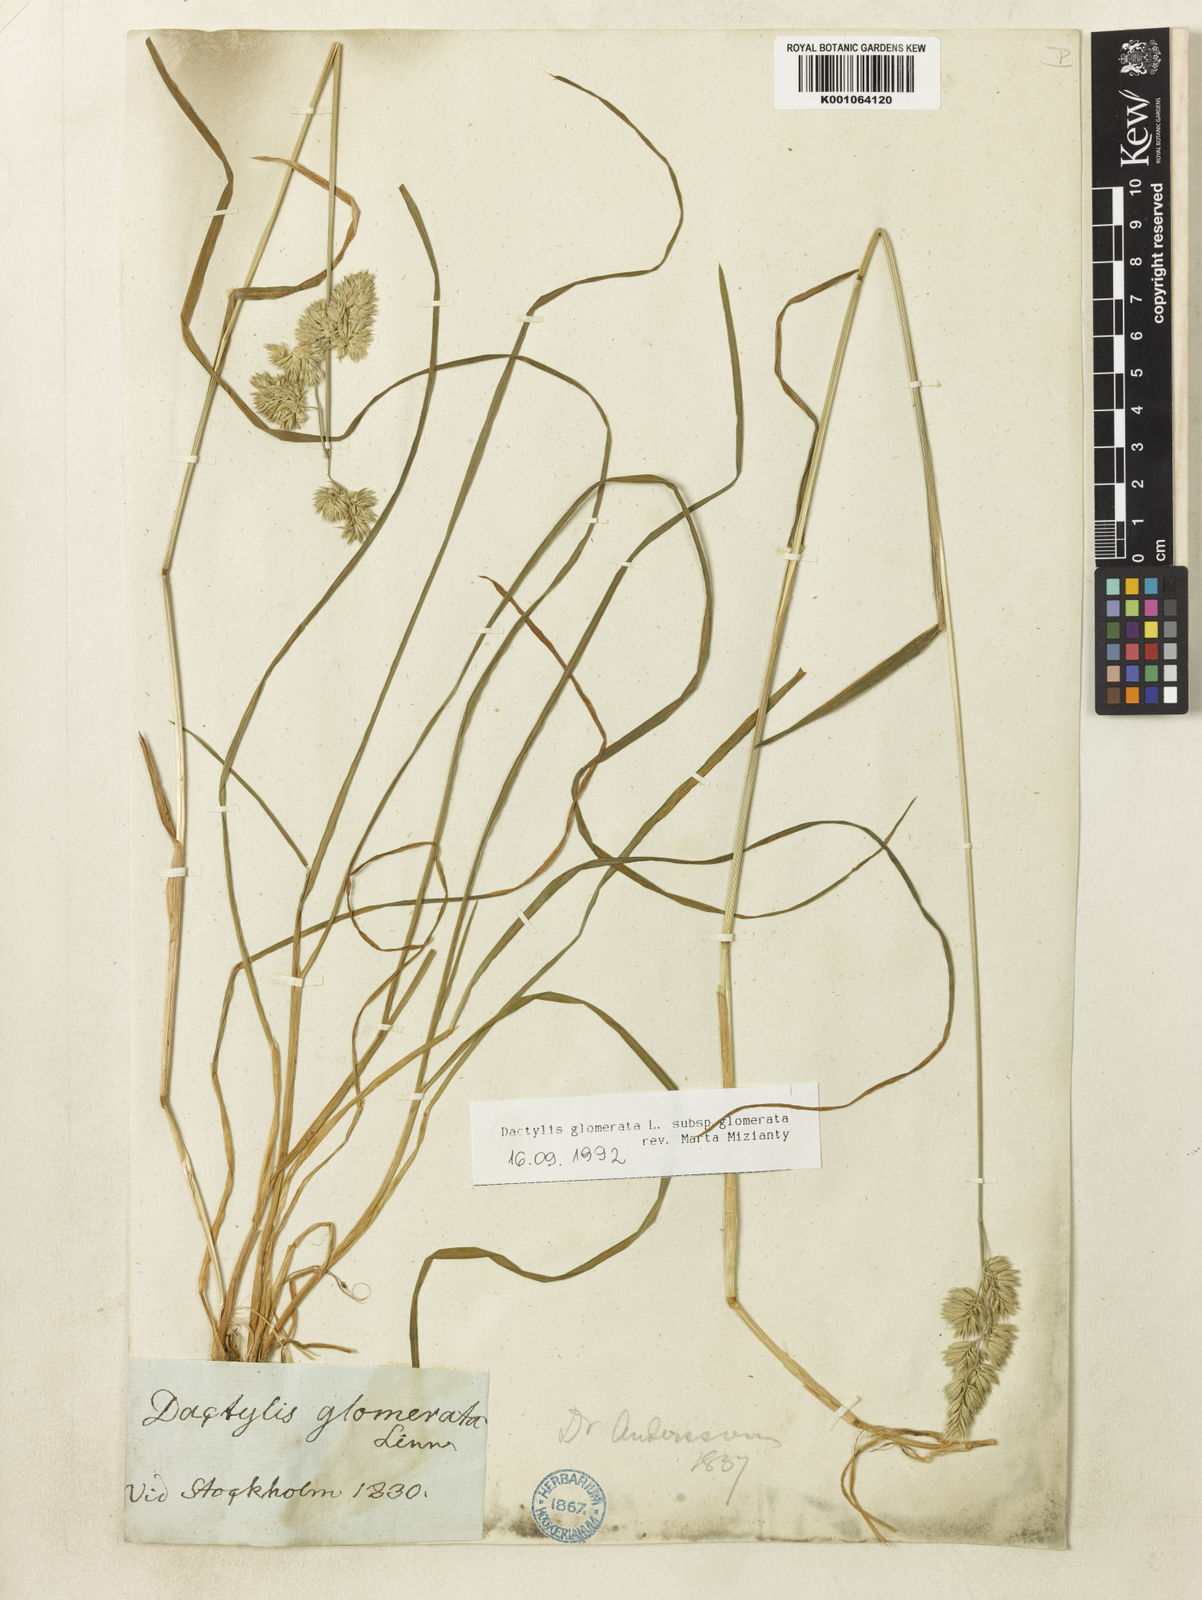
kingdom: Plantae
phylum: Tracheophyta
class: Liliopsida
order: Poales
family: Poaceae
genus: Dactylis
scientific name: Dactylis glomerata
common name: Orchardgrass
